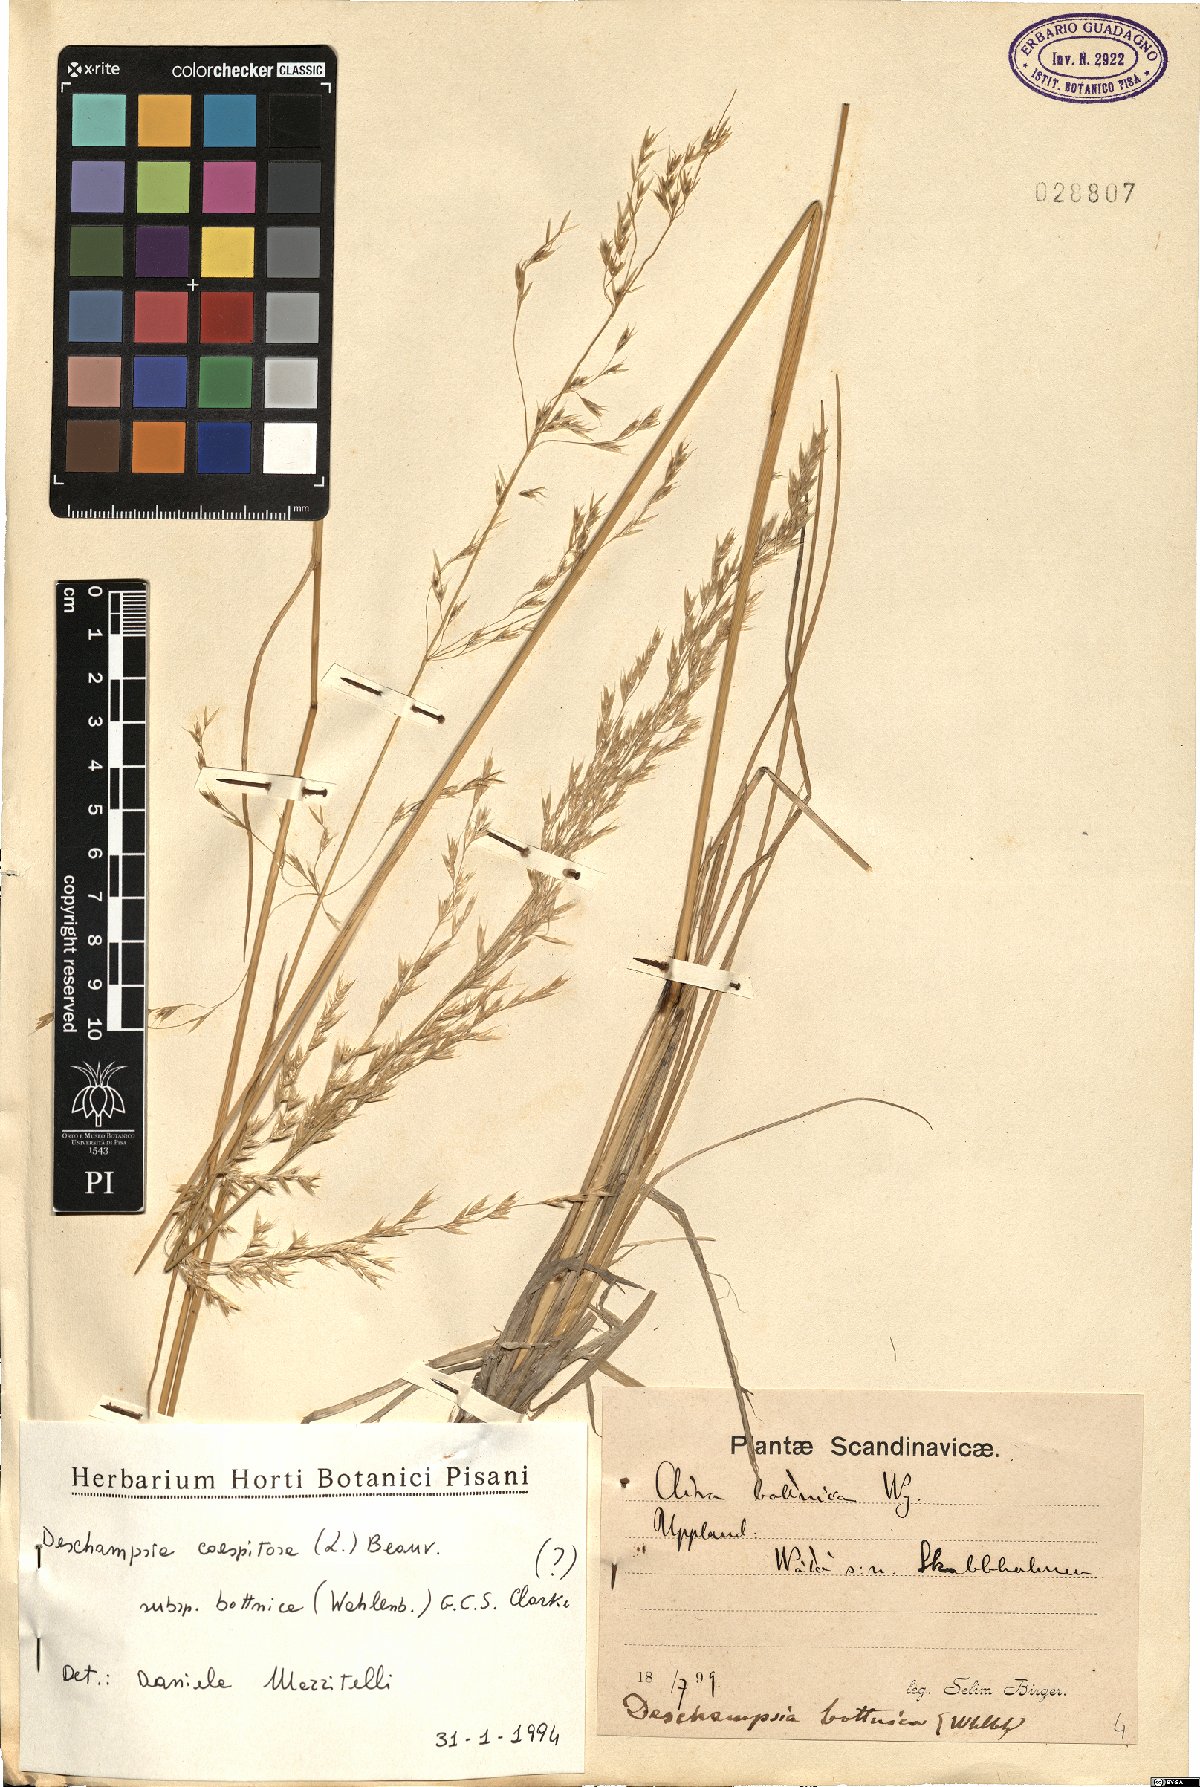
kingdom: Plantae
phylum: Tracheophyta
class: Liliopsida
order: Poales
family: Poaceae
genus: Deschampsia
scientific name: Deschampsia cespitosa
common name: Tufted hair-grass
